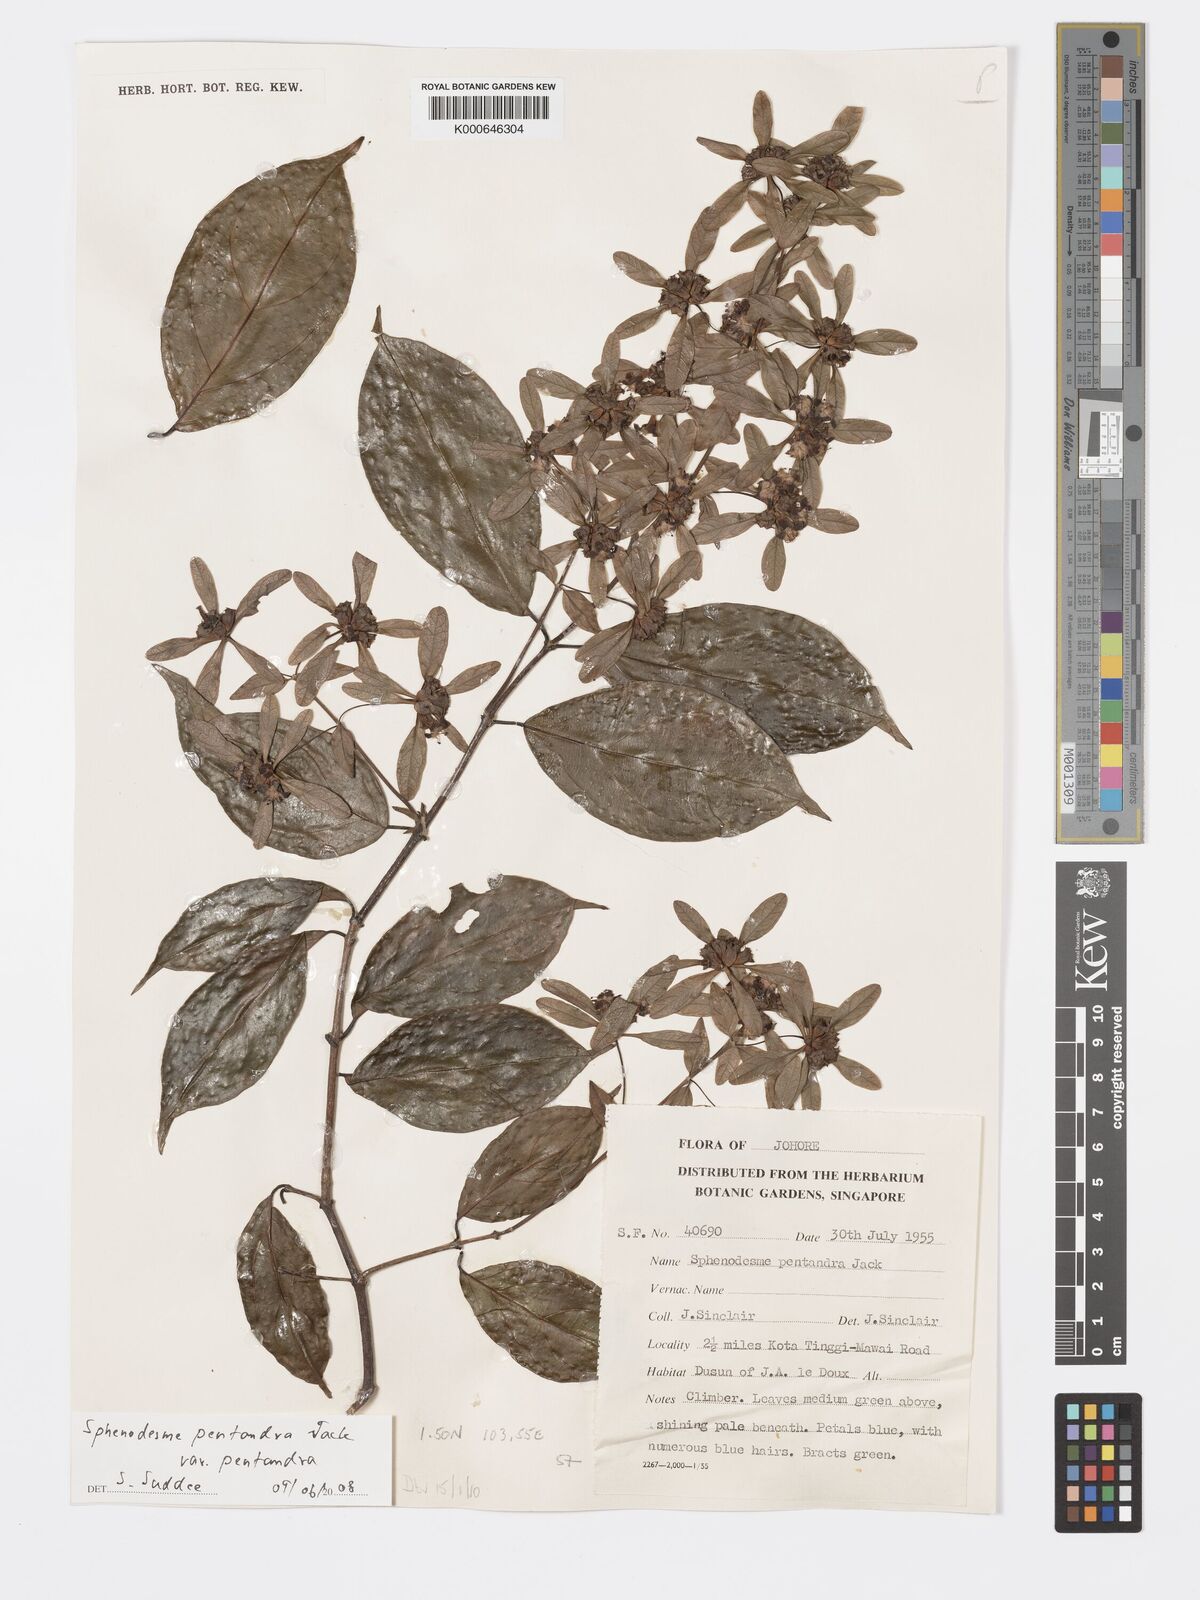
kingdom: Plantae
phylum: Tracheophyta
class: Magnoliopsida
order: Lamiales
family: Lamiaceae
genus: Sphenodesme
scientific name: Sphenodesme pentandra
